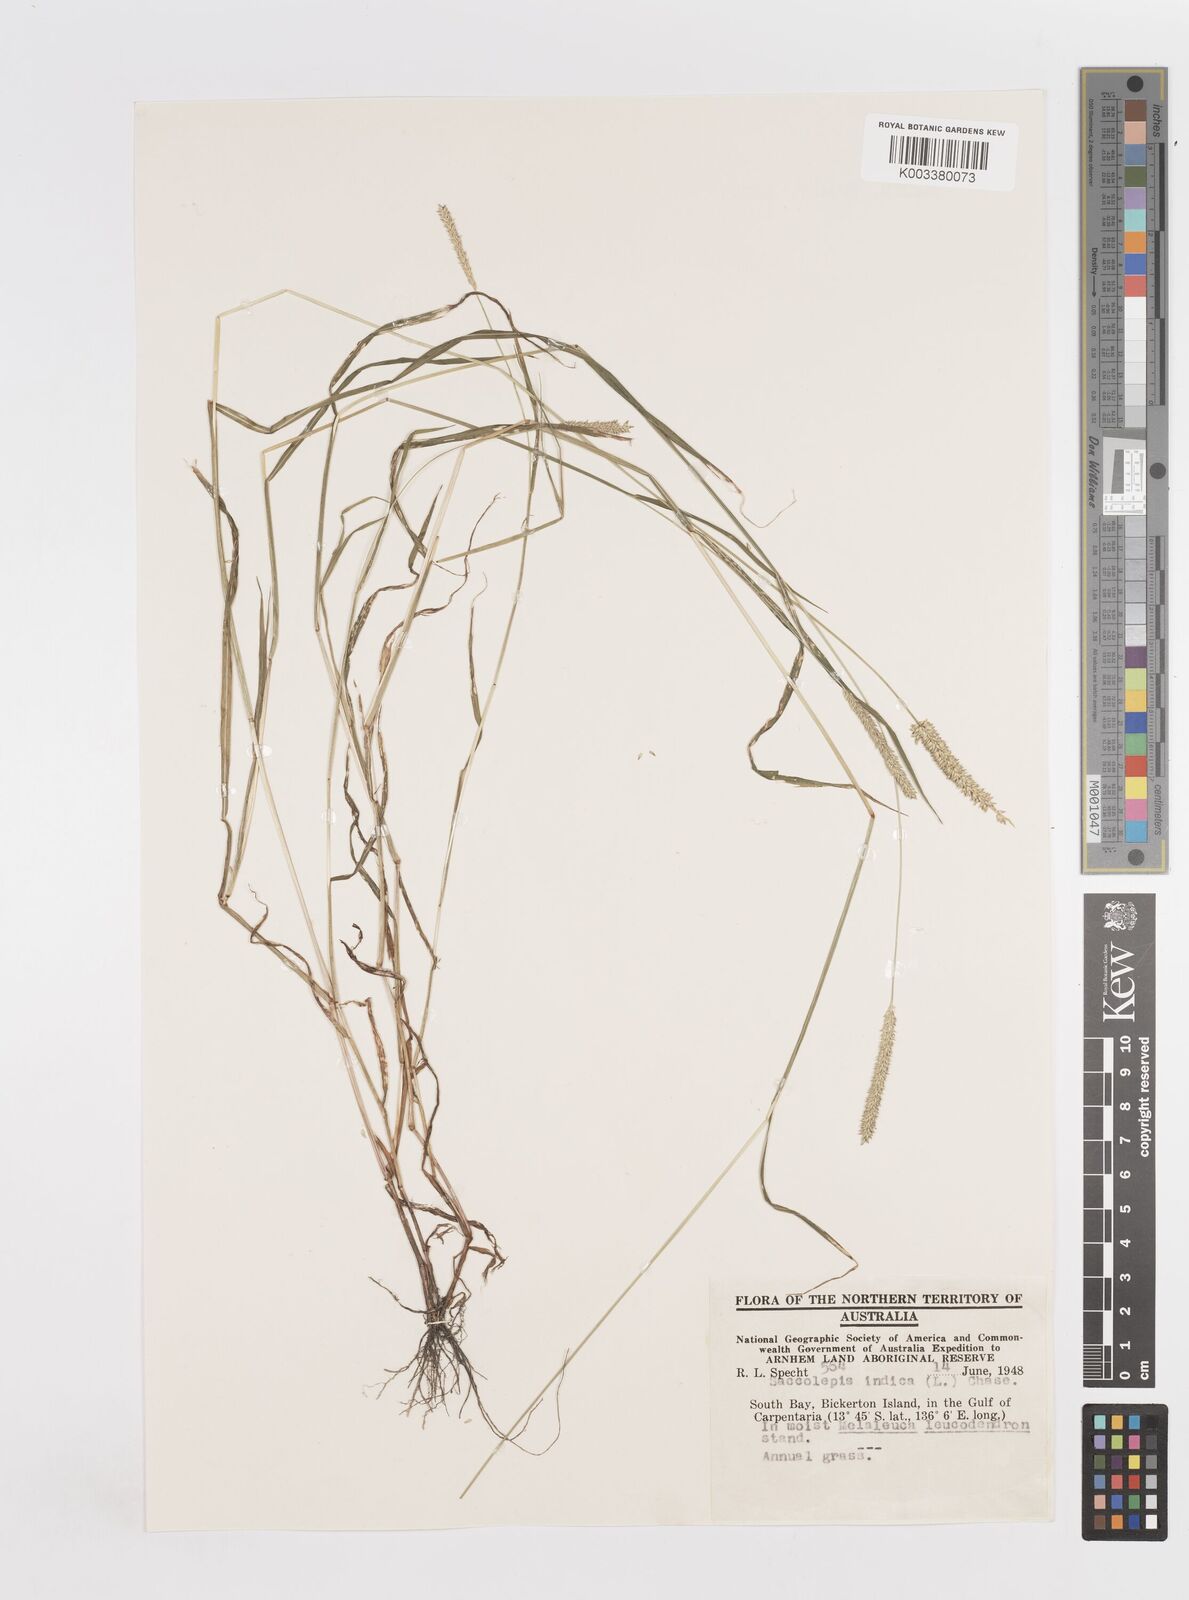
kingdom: Plantae
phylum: Tracheophyta
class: Liliopsida
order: Poales
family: Poaceae
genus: Sacciolepis
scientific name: Sacciolepis indica
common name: Glenwoodgrass
